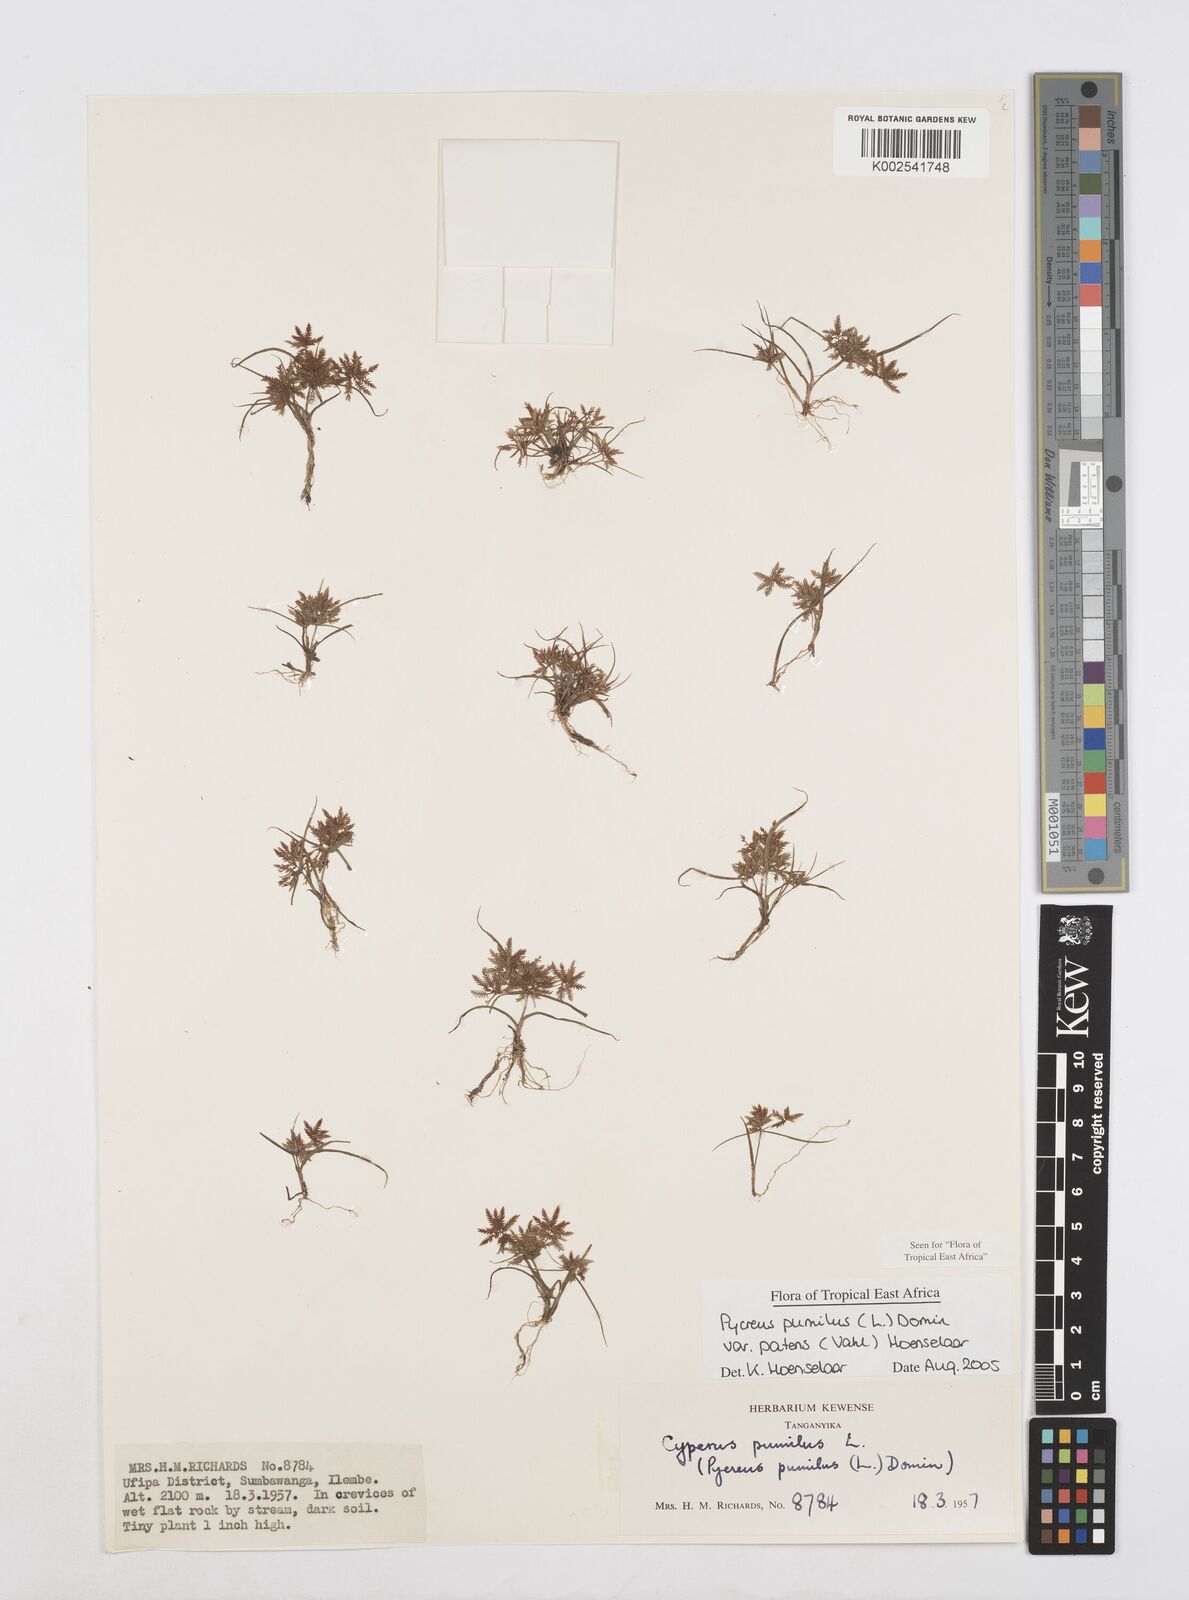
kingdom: Plantae
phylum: Tracheophyta
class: Liliopsida
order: Poales
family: Cyperaceae
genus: Cyperus
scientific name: Cyperus pumilus
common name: Low flatsedge
